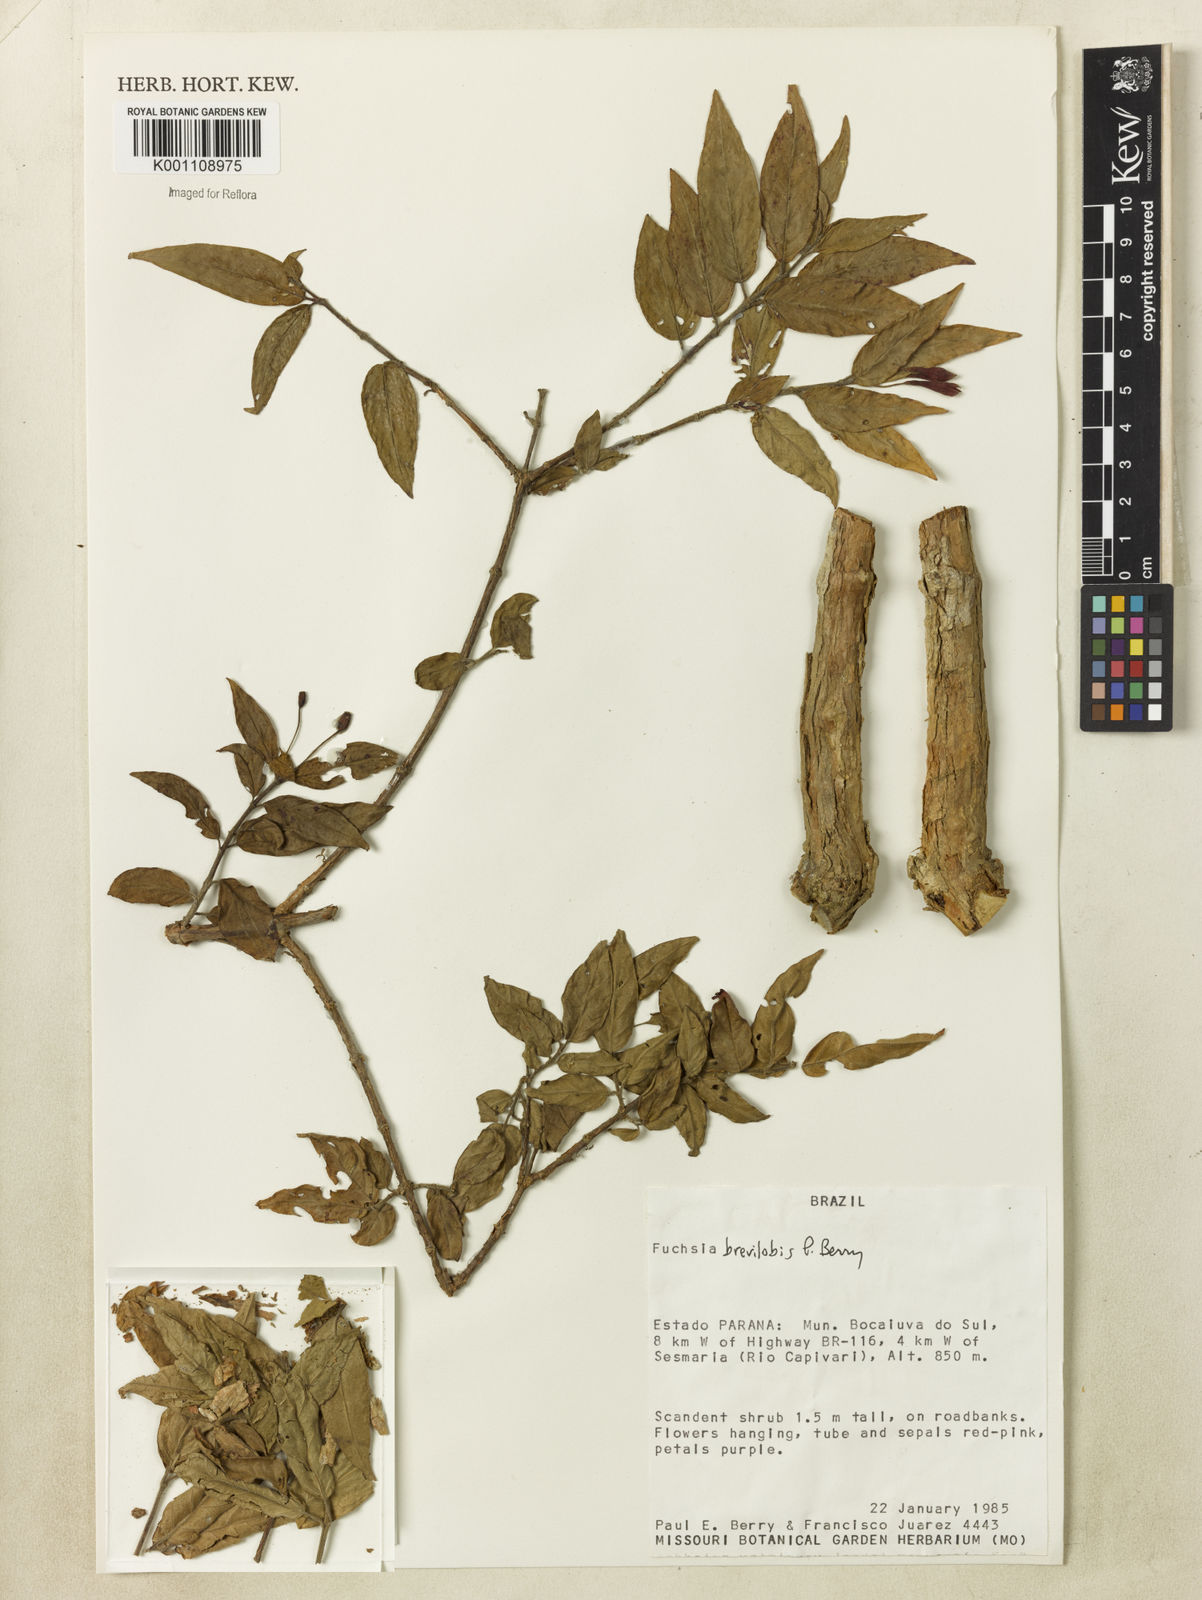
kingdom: Plantae
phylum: Tracheophyta
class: Magnoliopsida
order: Myrtales
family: Onagraceae
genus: Fuchsia
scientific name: Fuchsia brevilobis
